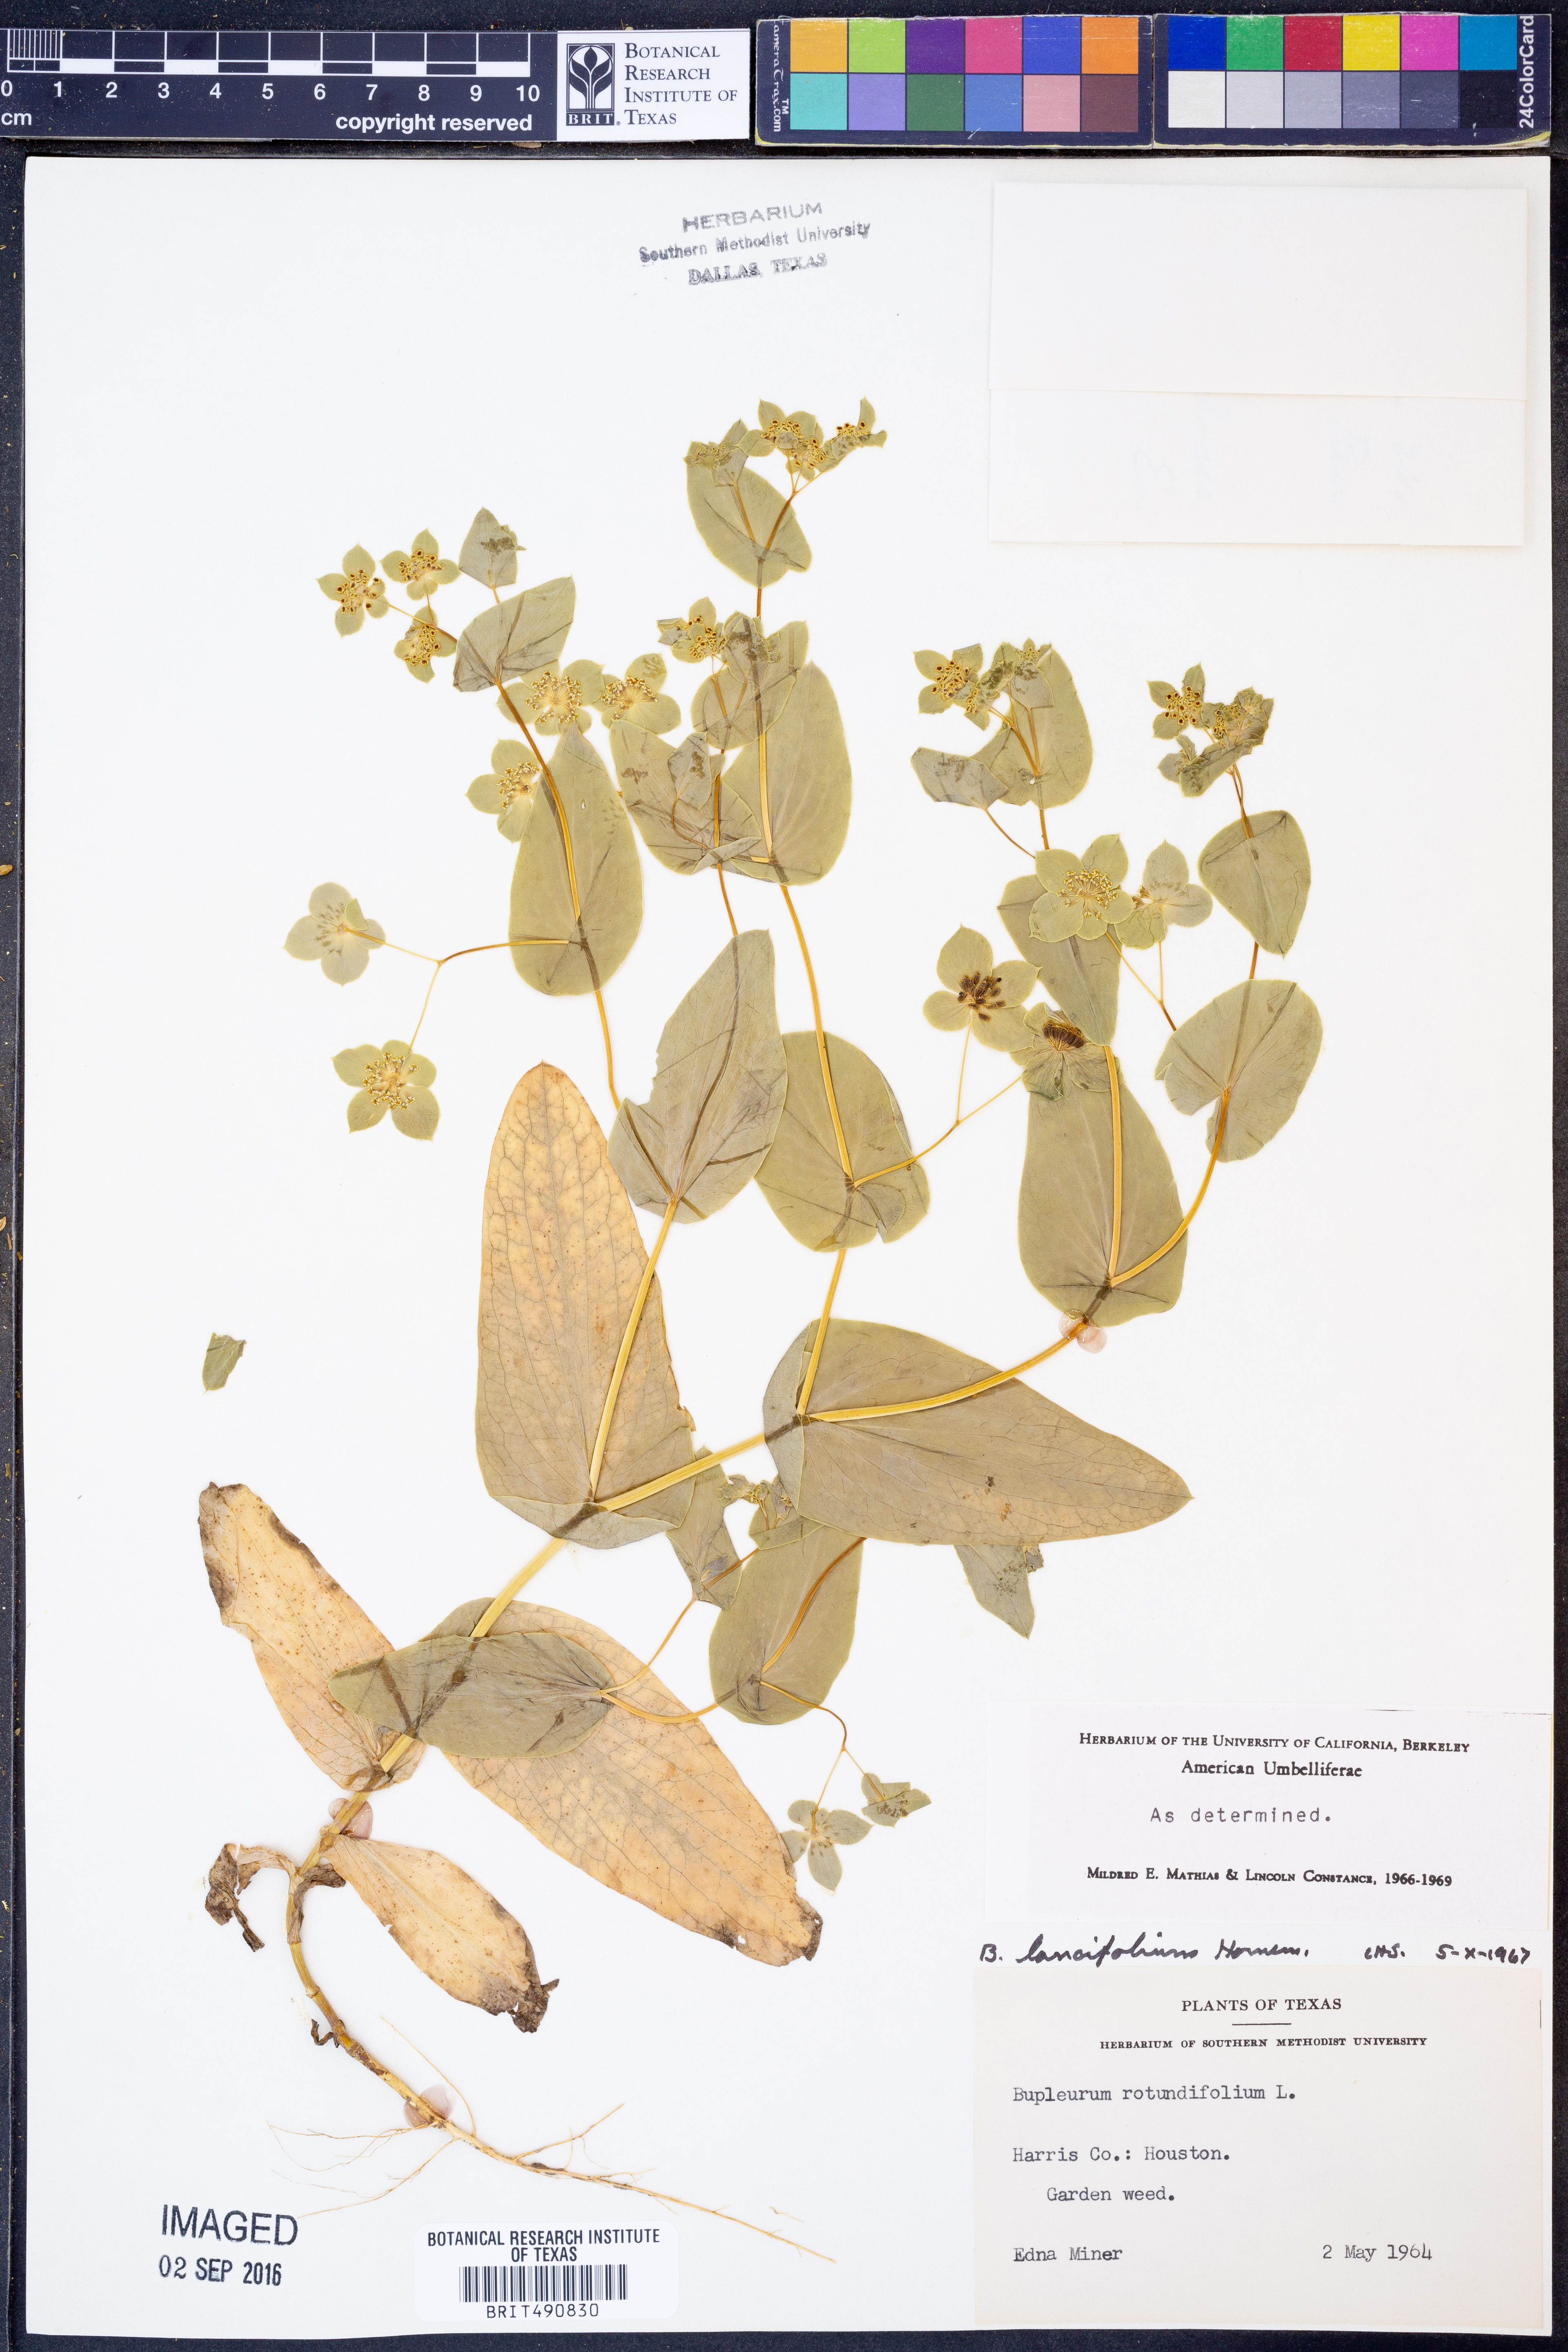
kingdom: Plantae
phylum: Tracheophyta
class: Magnoliopsida
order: Apiales
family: Apiaceae
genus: Bupleurum
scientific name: Bupleurum lancifolium
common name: False thorow-wax
